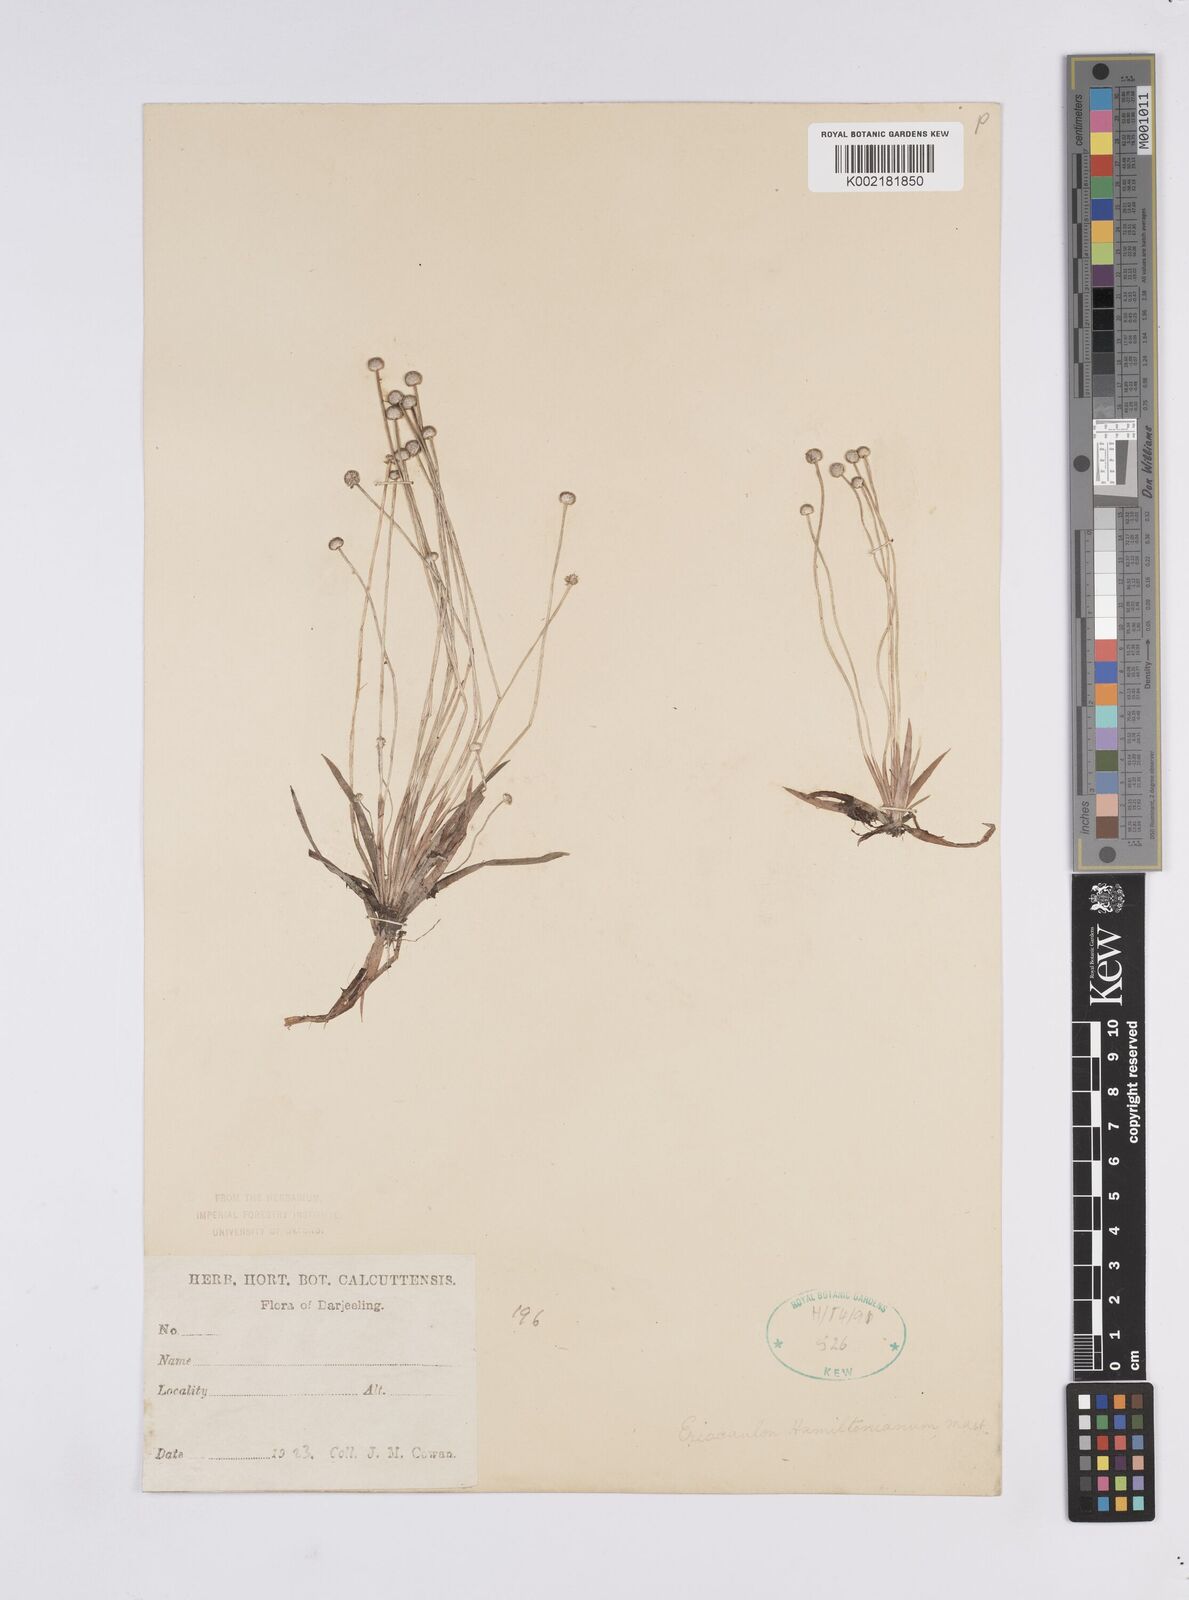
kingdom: Plantae
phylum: Tracheophyta
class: Liliopsida
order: Poales
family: Eriocaulaceae
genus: Eriocaulon
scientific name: Eriocaulon hamiltonianum
